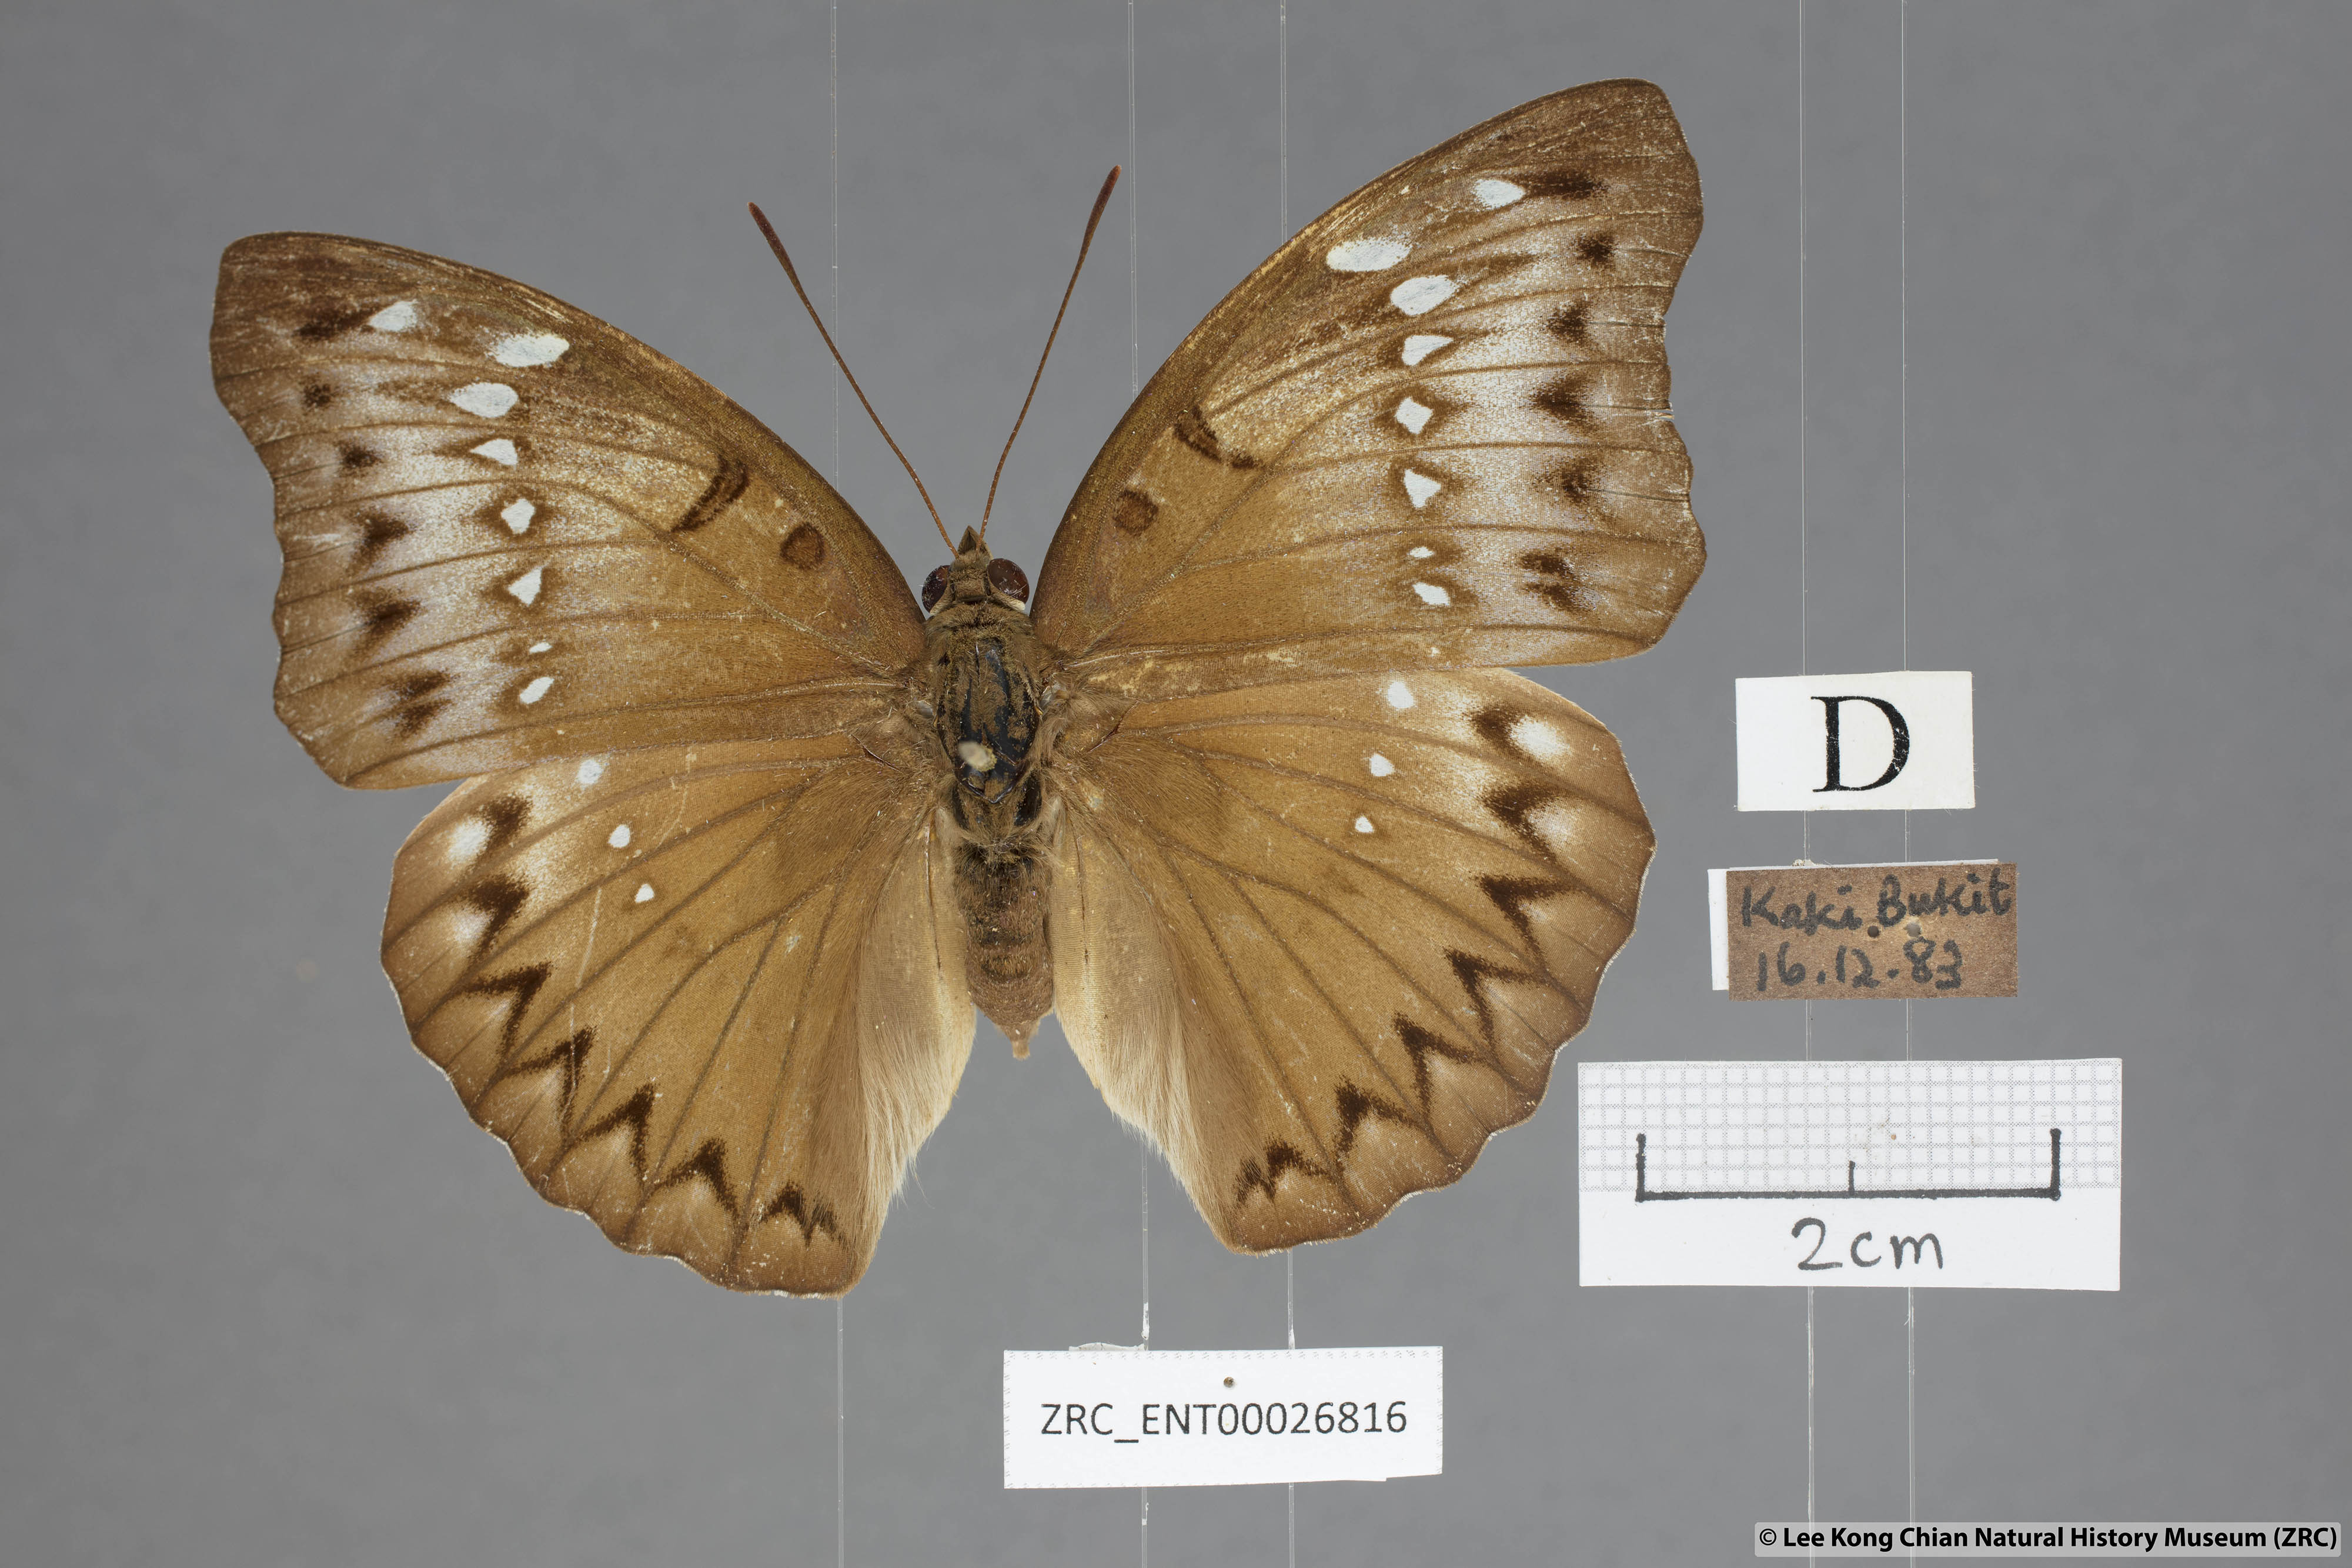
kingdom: Animalia
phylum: Arthropoda
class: Insecta
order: Lepidoptera
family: Nymphalidae
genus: Euthalia
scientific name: Euthalia Bassarona teuta
